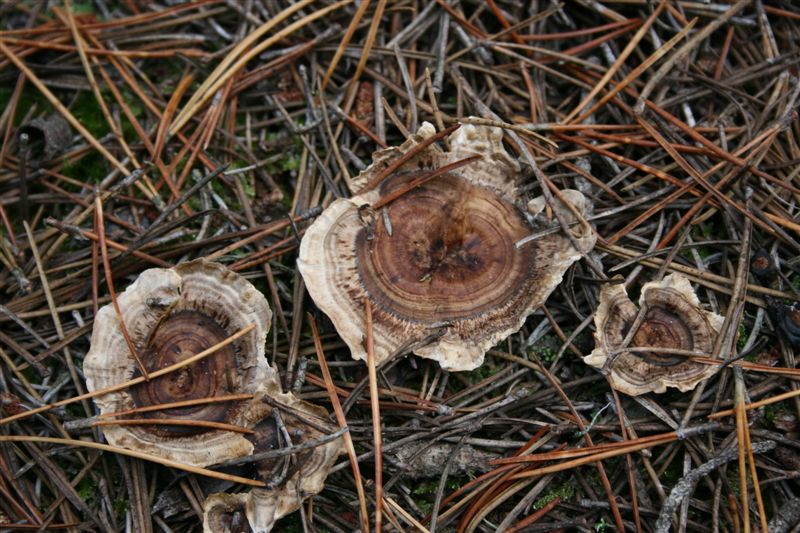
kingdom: Fungi
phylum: Basidiomycota
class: Agaricomycetes
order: Thelephorales
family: Thelephoraceae
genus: Phellodon
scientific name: Phellodon tomentosus
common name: tragtformet duftpigsvamp
